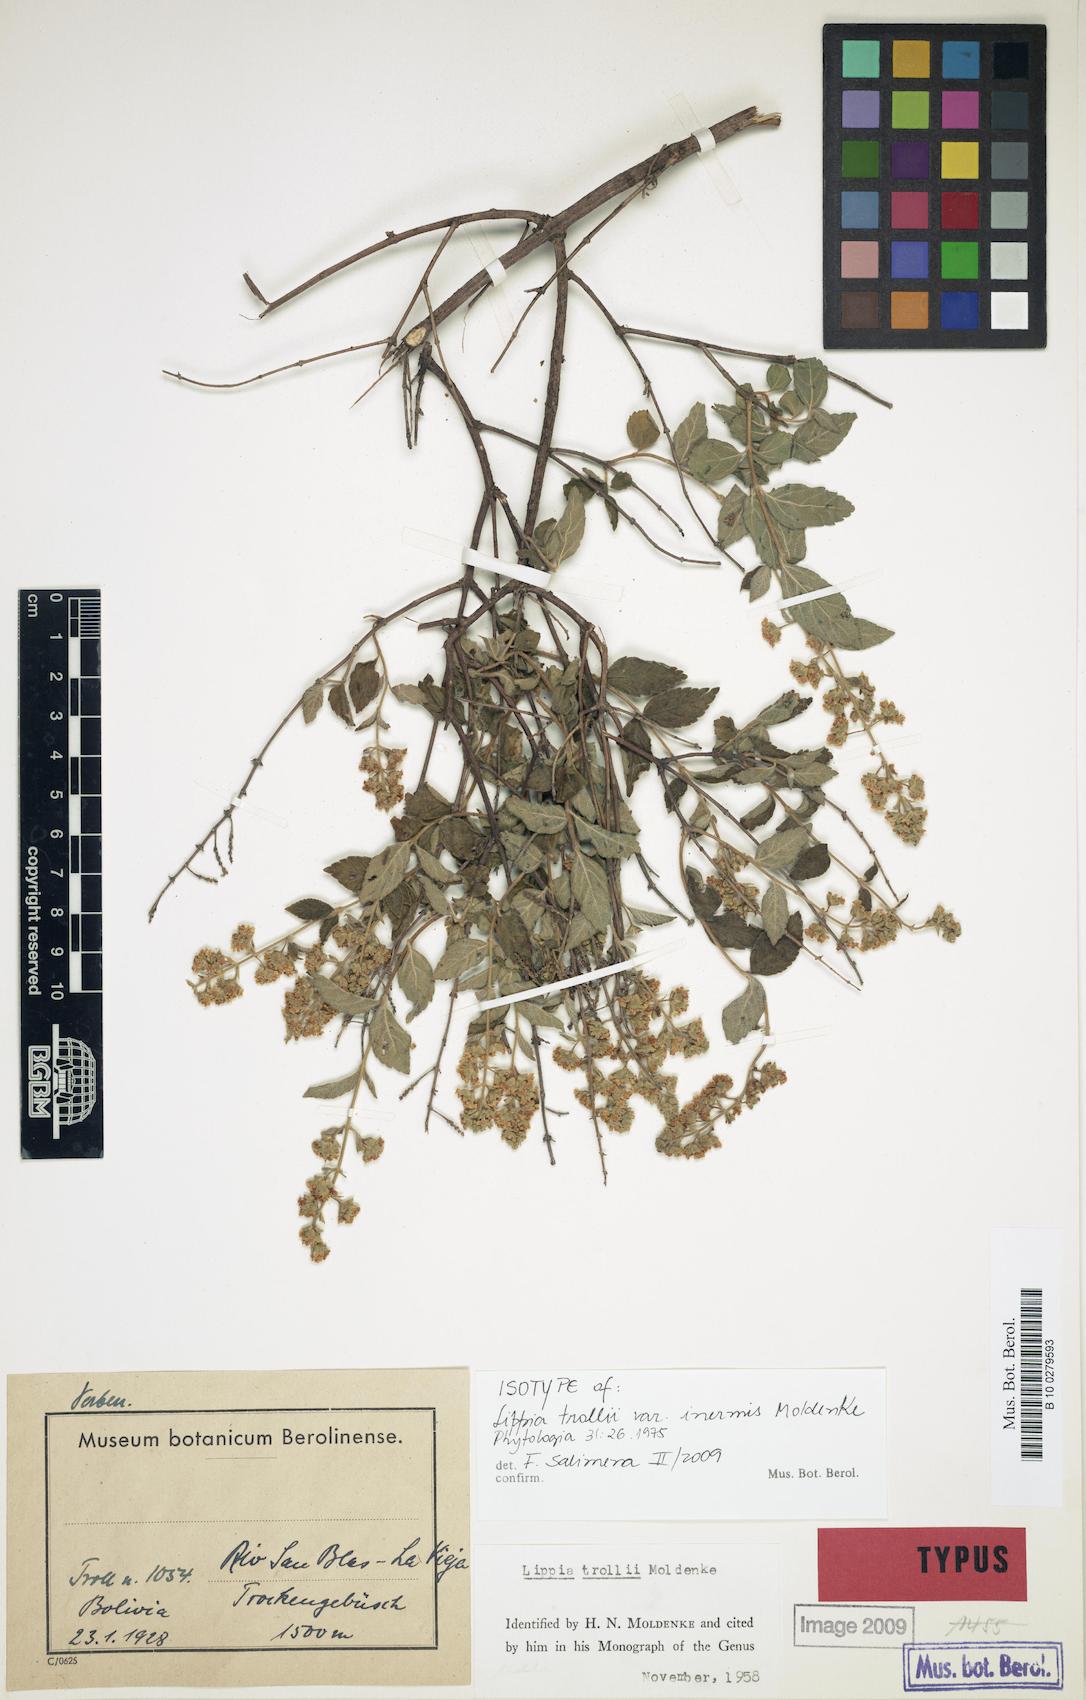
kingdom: Plantae
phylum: Tracheophyta
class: Magnoliopsida
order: Lamiales
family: Verbenaceae
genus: Lippia
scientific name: Lippia trollii
